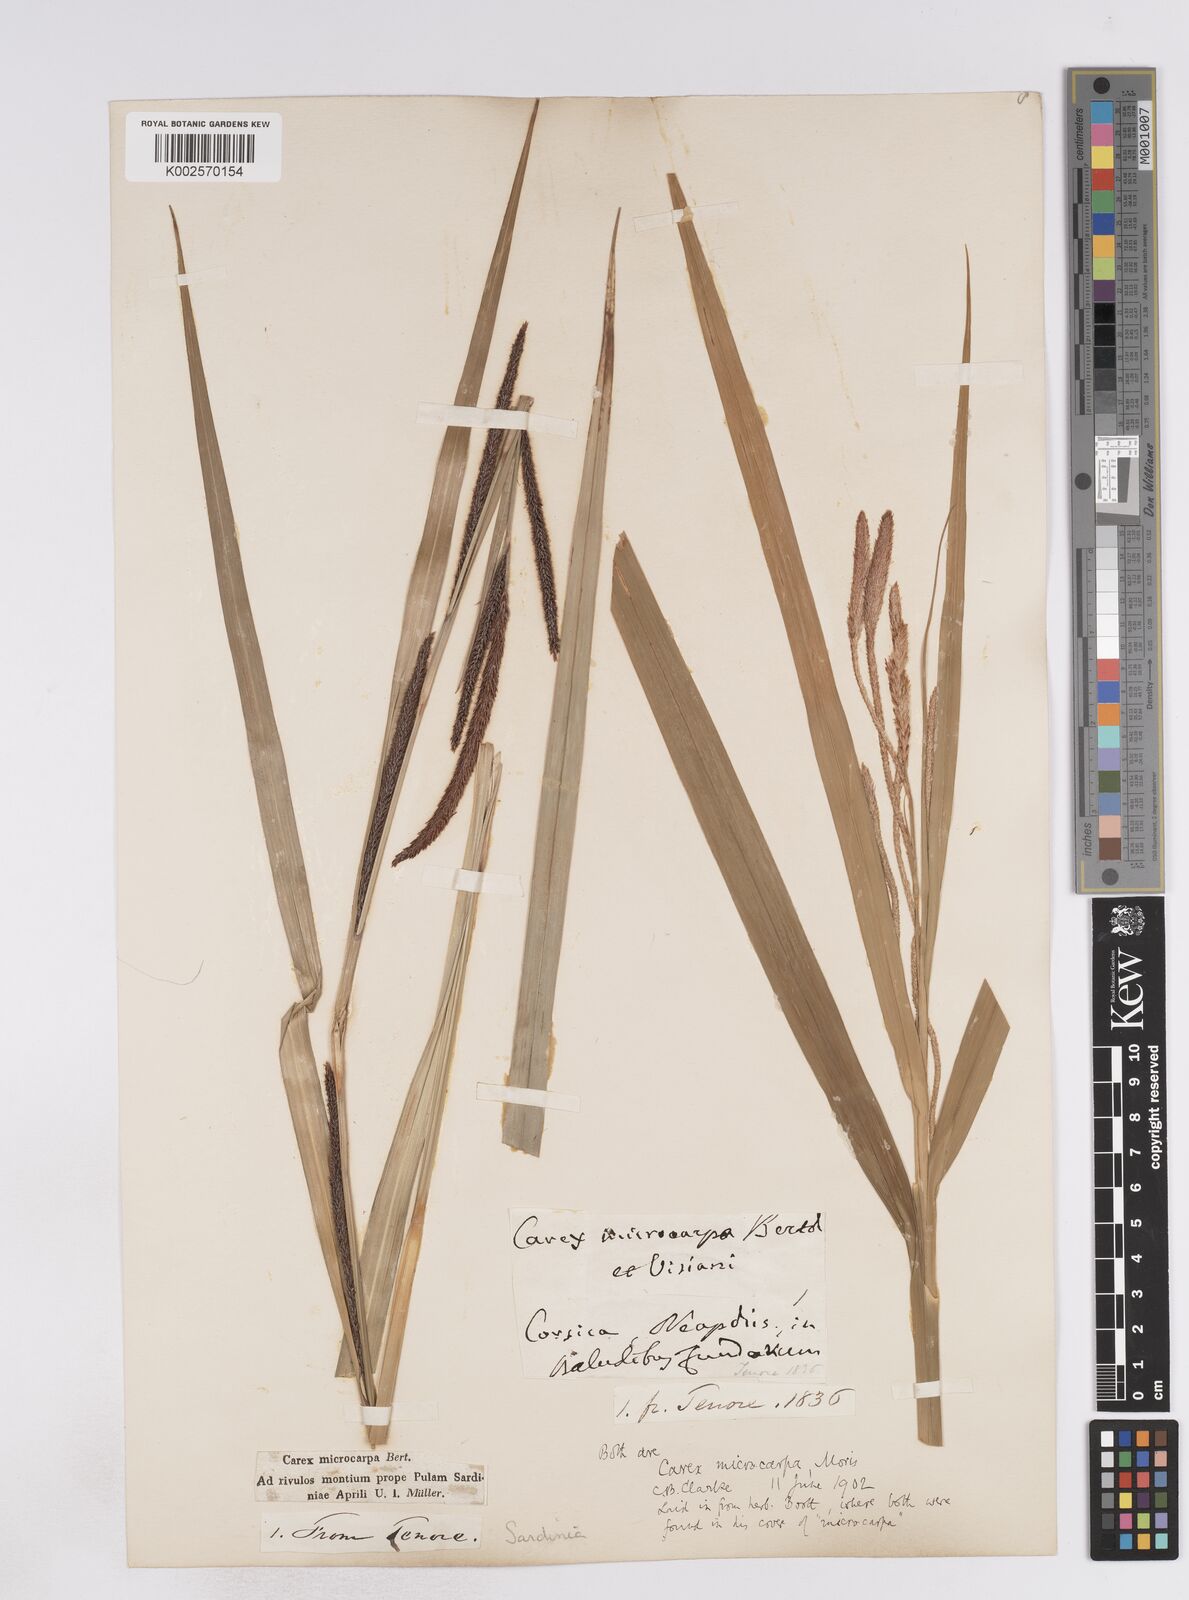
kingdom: Plantae
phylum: Tracheophyta
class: Liliopsida
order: Poales
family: Cyperaceae
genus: Carex
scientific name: Carex microcarpa
